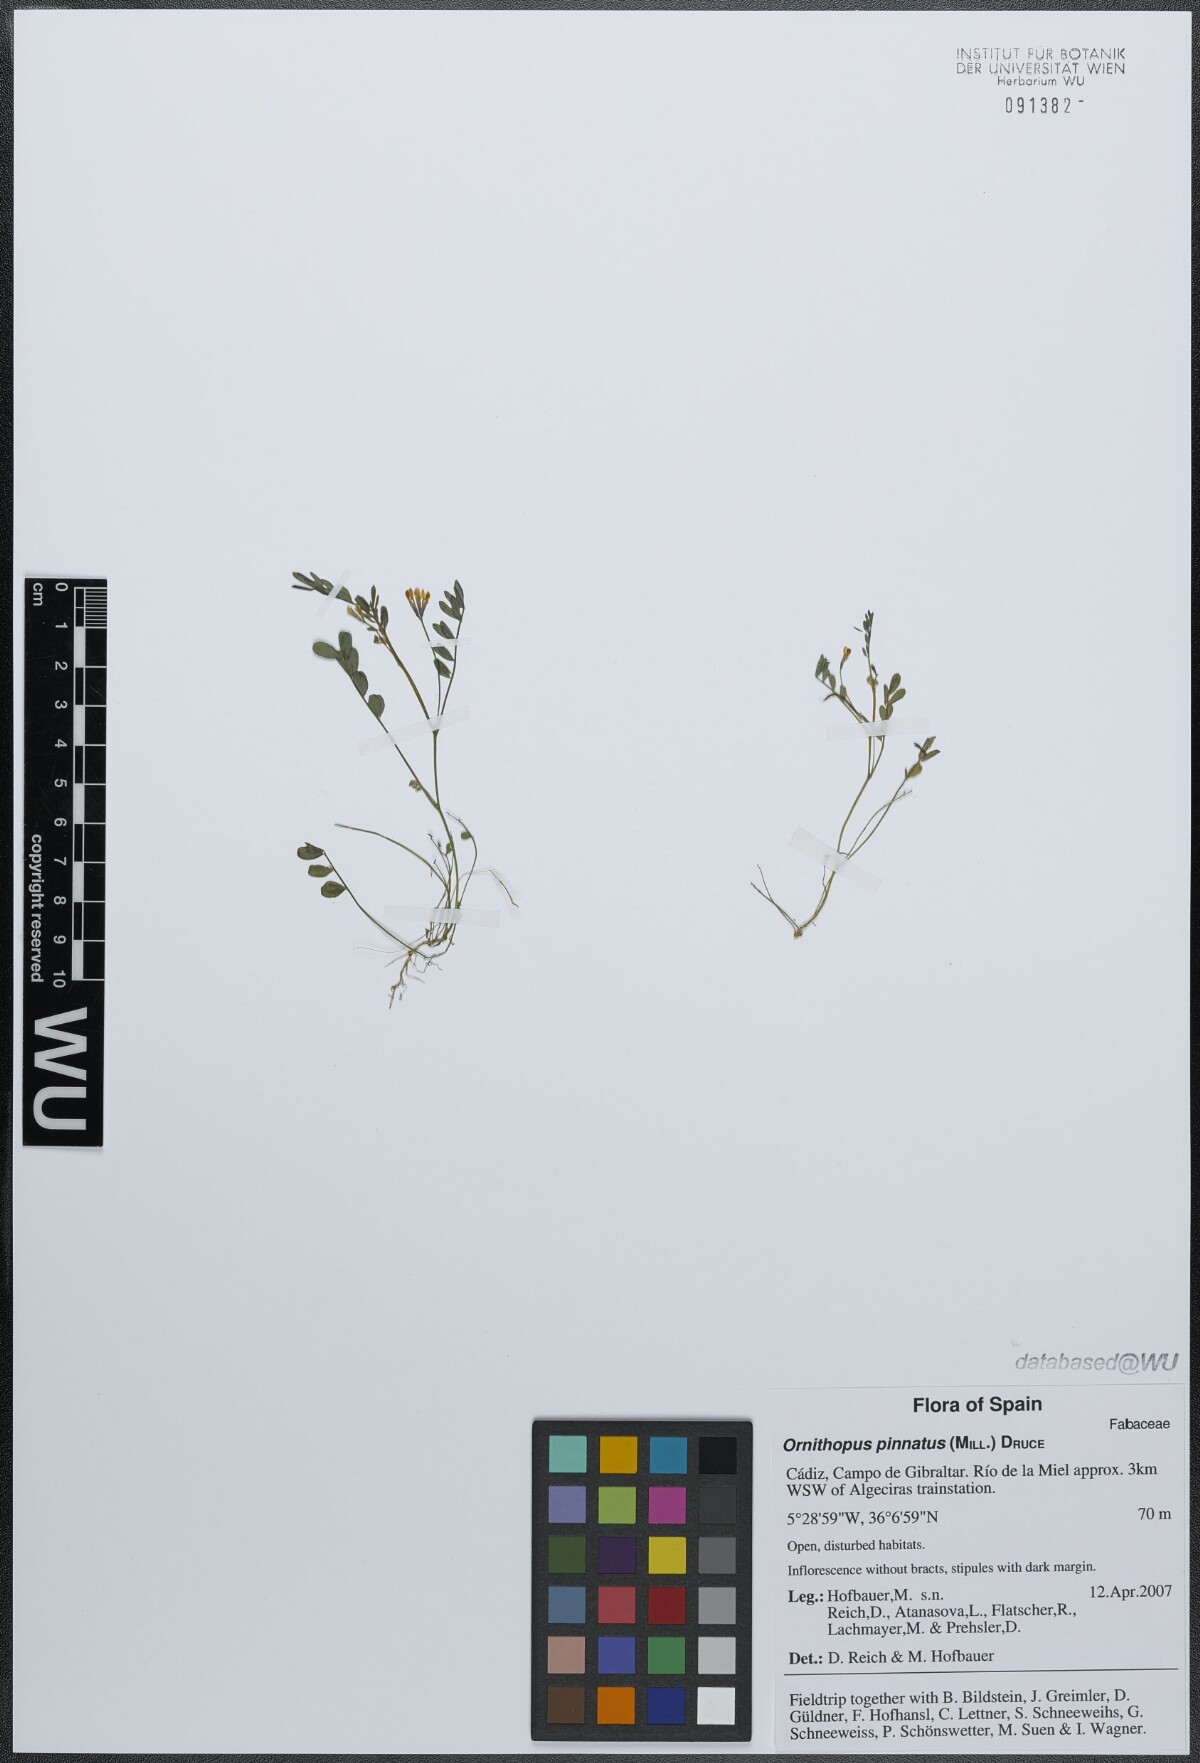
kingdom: Plantae
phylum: Tracheophyta
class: Magnoliopsida
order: Fabales
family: Fabaceae
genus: Ornithopus
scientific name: Ornithopus pinnatus
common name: Orange bird's-foot
